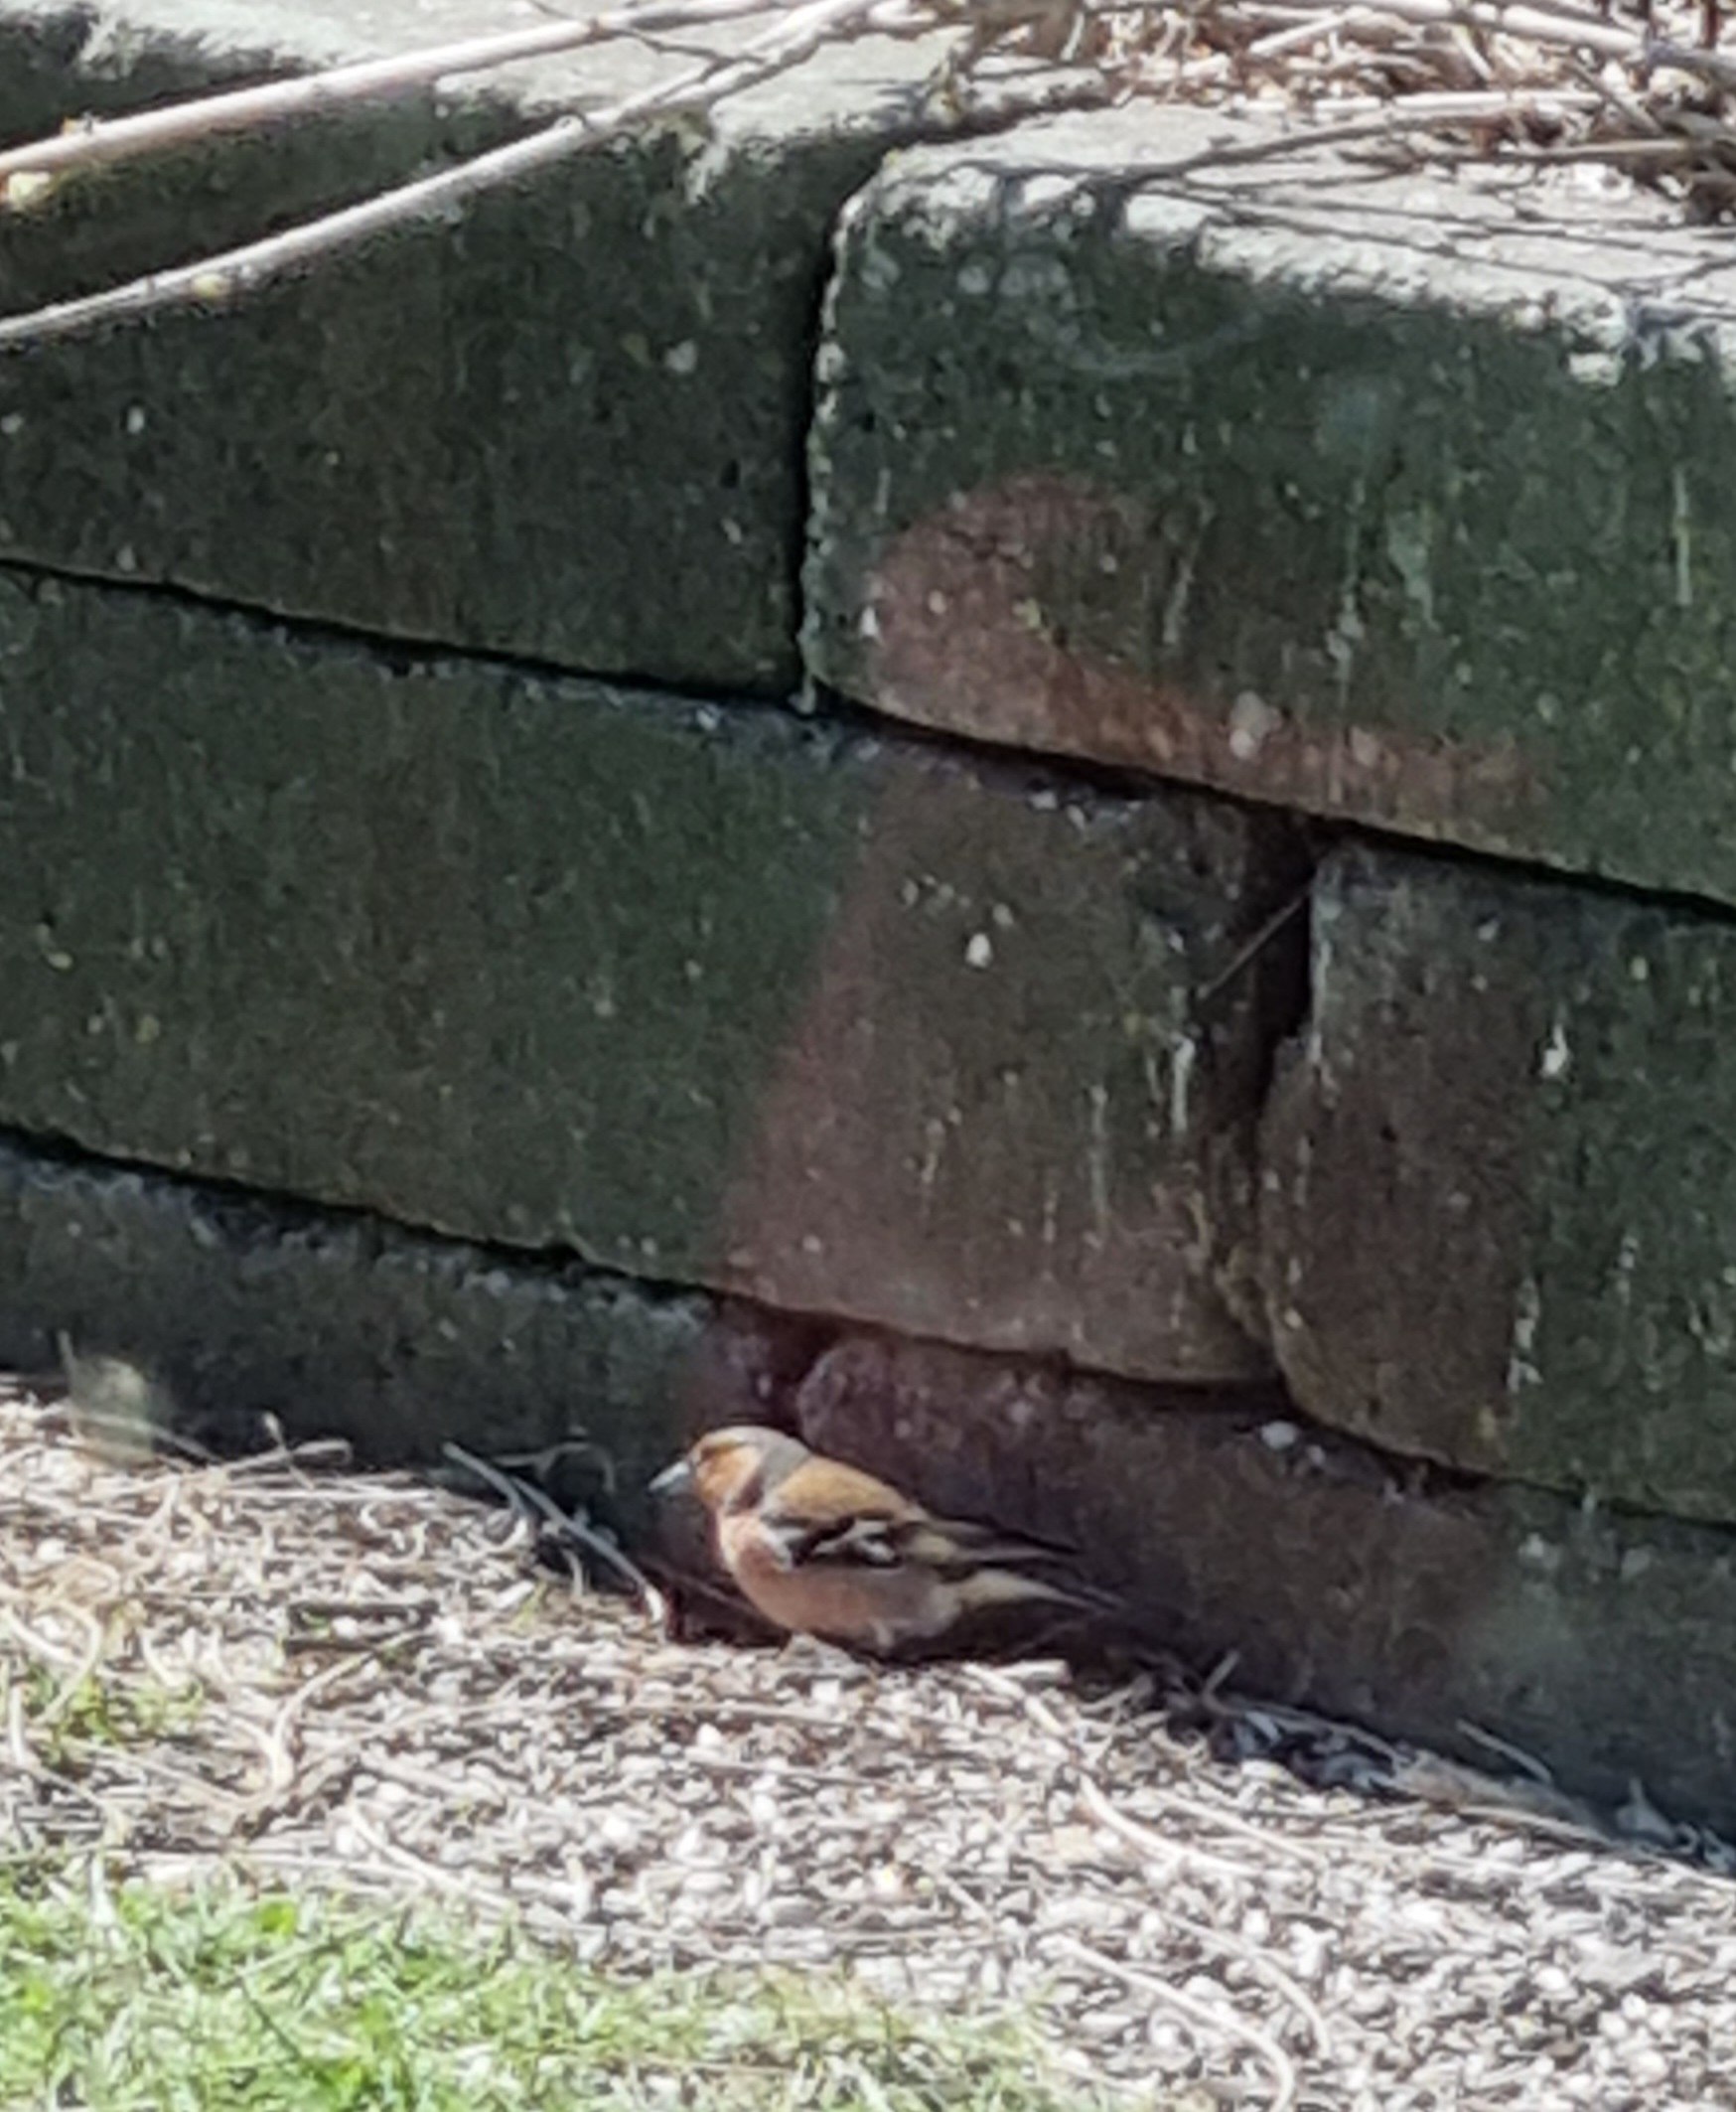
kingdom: Animalia
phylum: Chordata
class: Aves
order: Passeriformes
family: Fringillidae
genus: Fringilla
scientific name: Fringilla coelebs
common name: Bogfinke
